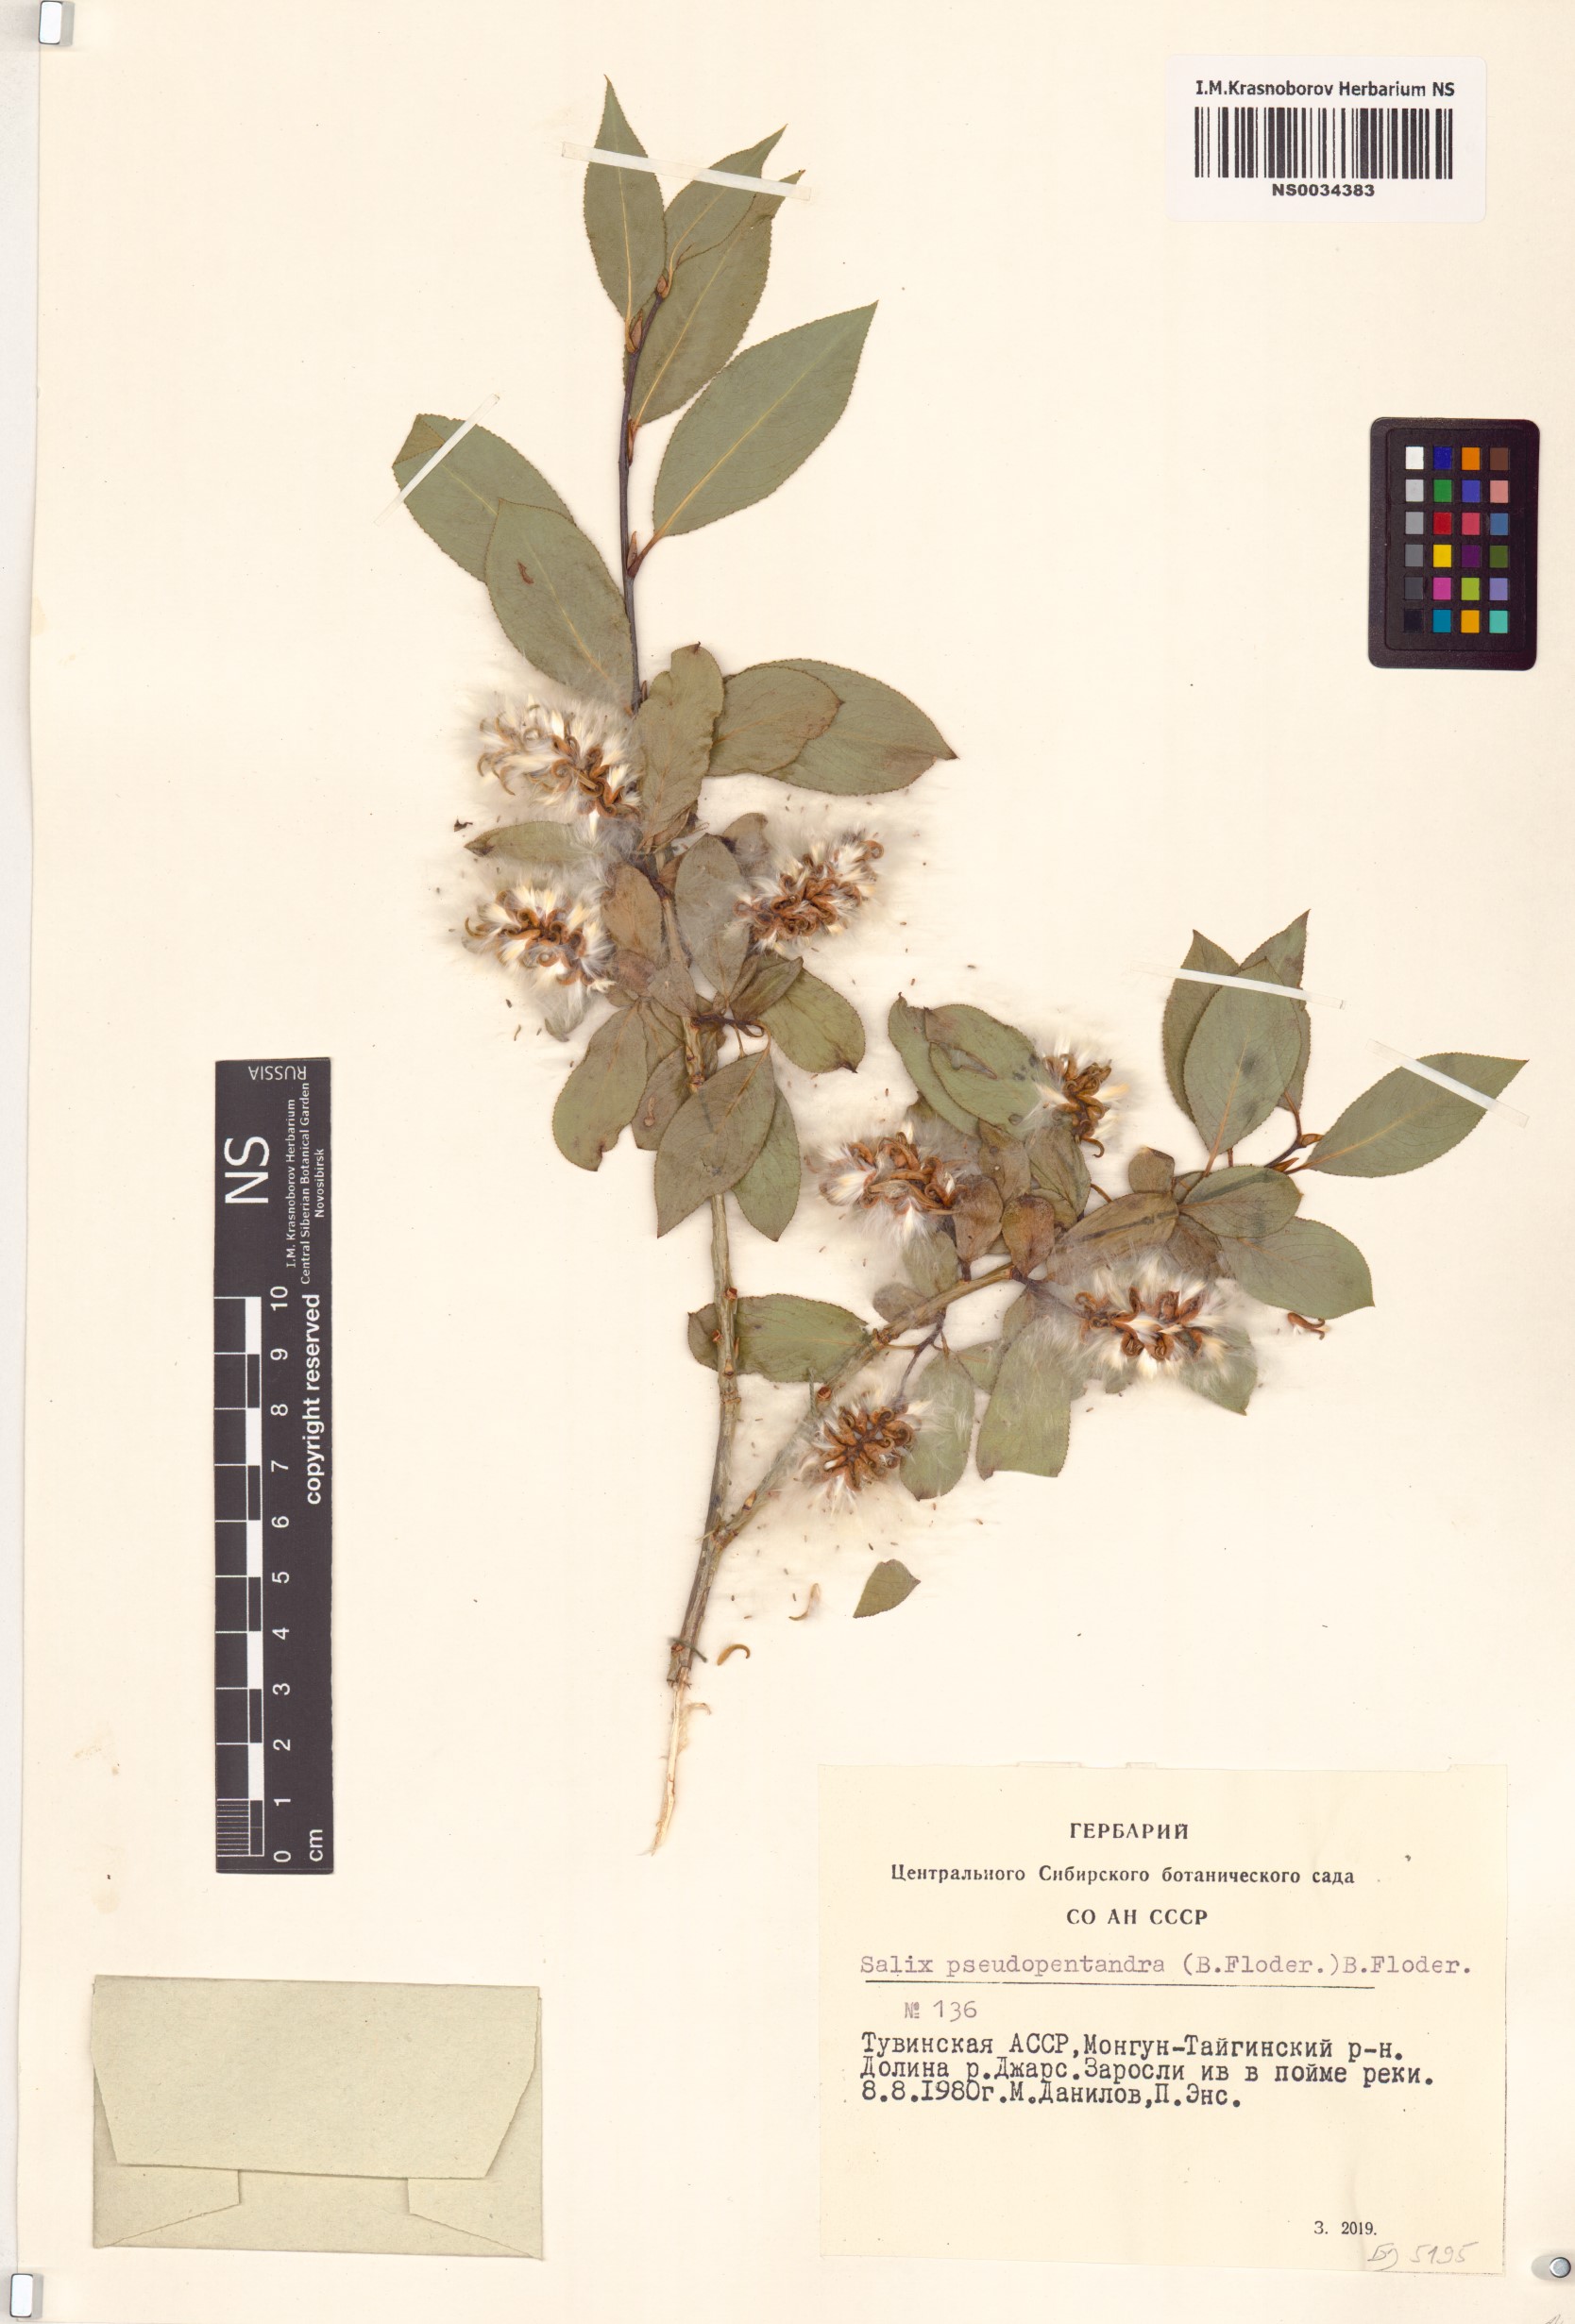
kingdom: Plantae
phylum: Tracheophyta
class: Magnoliopsida
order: Malpighiales
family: Salicaceae
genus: Salix
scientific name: Salix pseudopentandra
